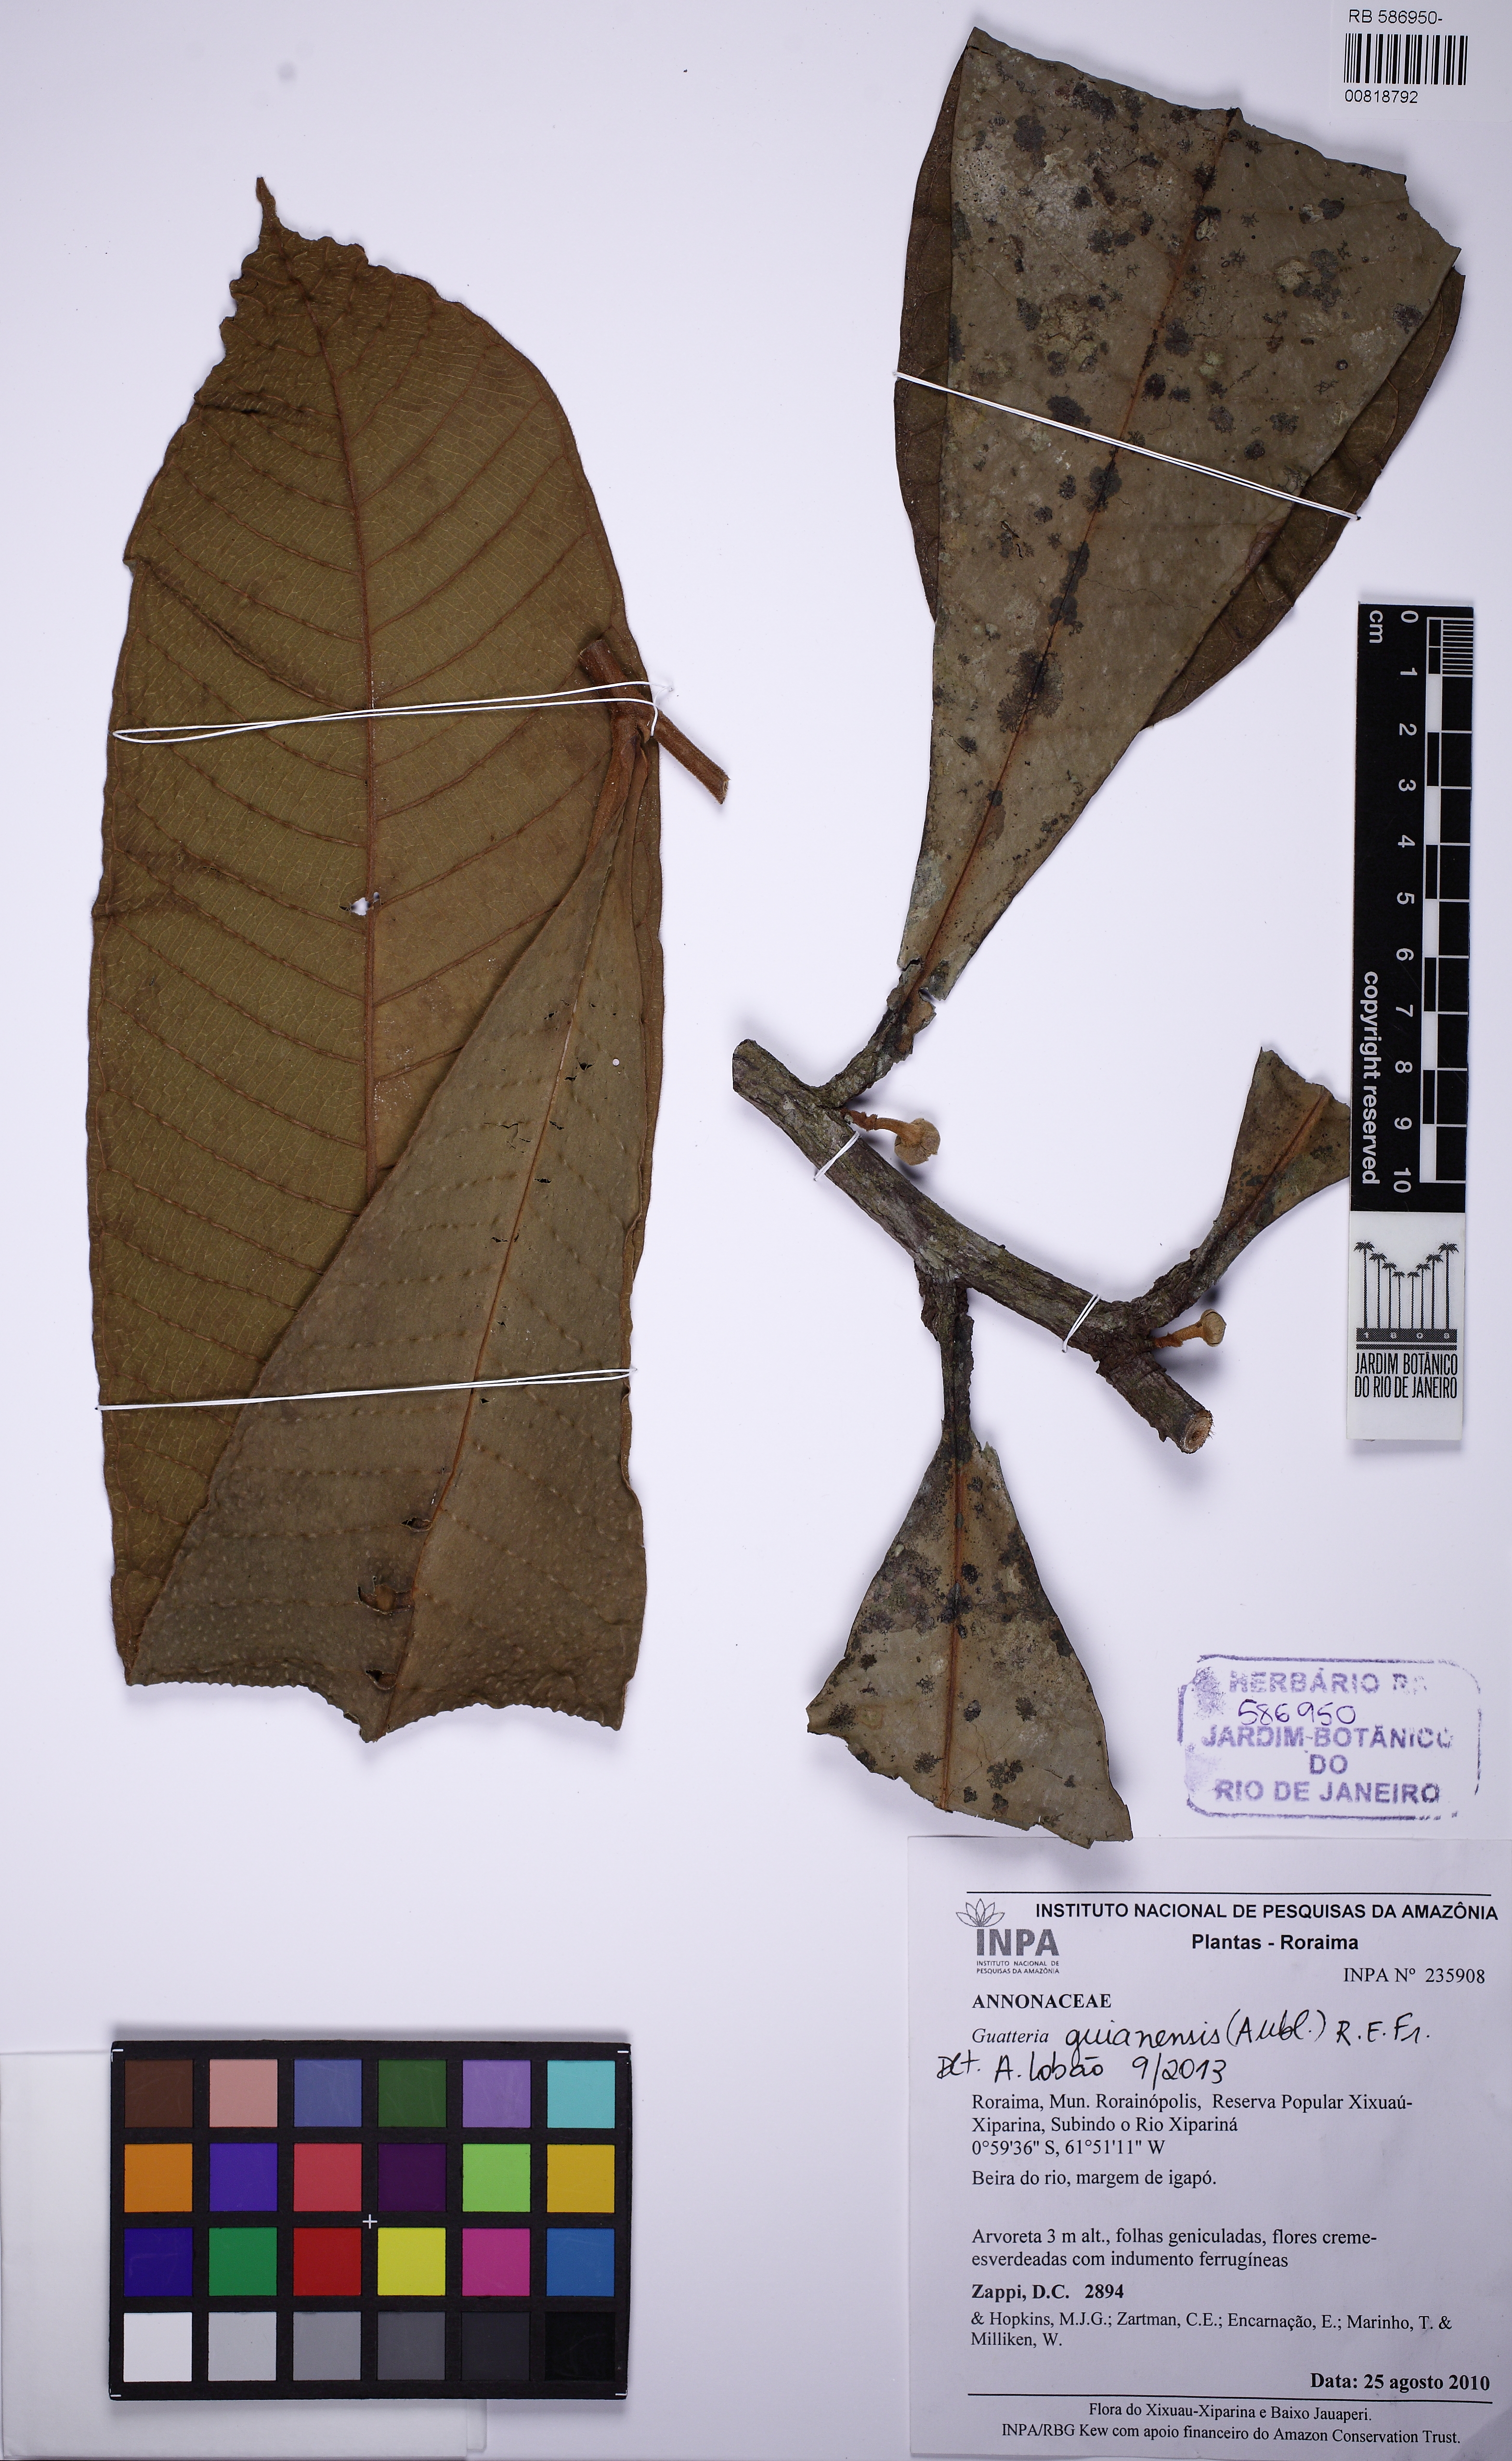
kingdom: Plantae
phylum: Tracheophyta
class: Magnoliopsida
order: Magnoliales
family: Annonaceae
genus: Guatteria
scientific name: Guatteria guianensis
